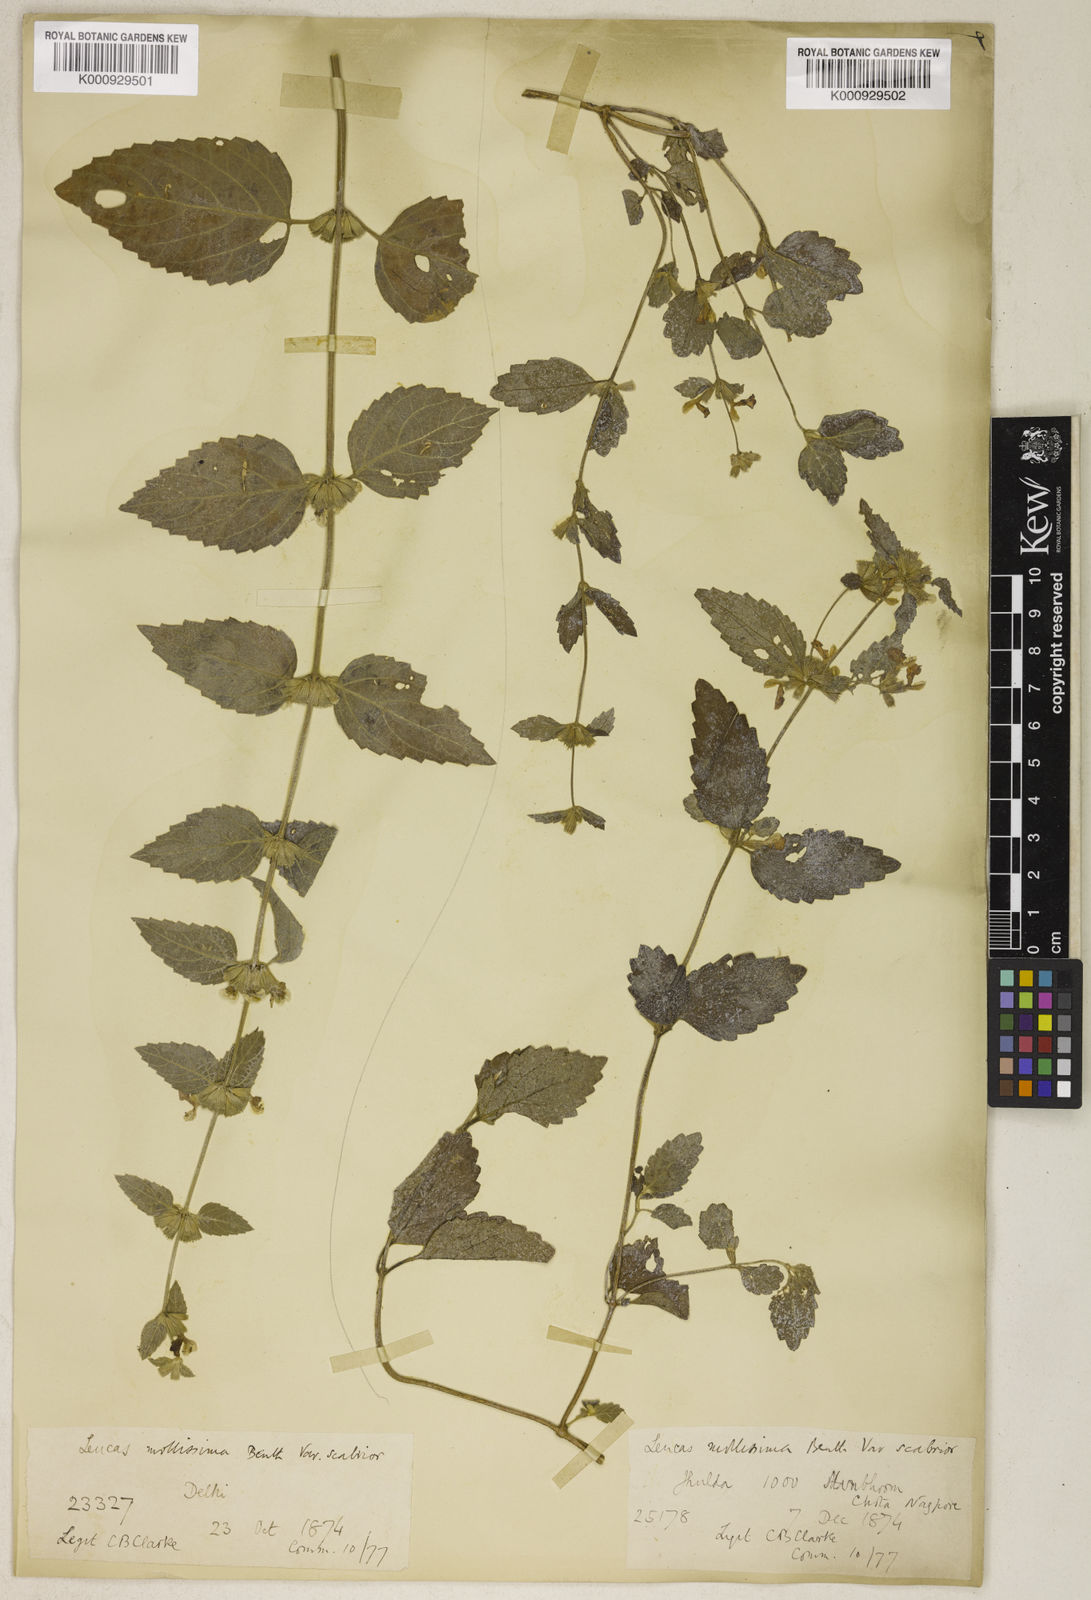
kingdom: Plantae
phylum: Tracheophyta
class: Magnoliopsida
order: Lamiales
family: Lamiaceae
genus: Leucas
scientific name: Leucas mollissima
